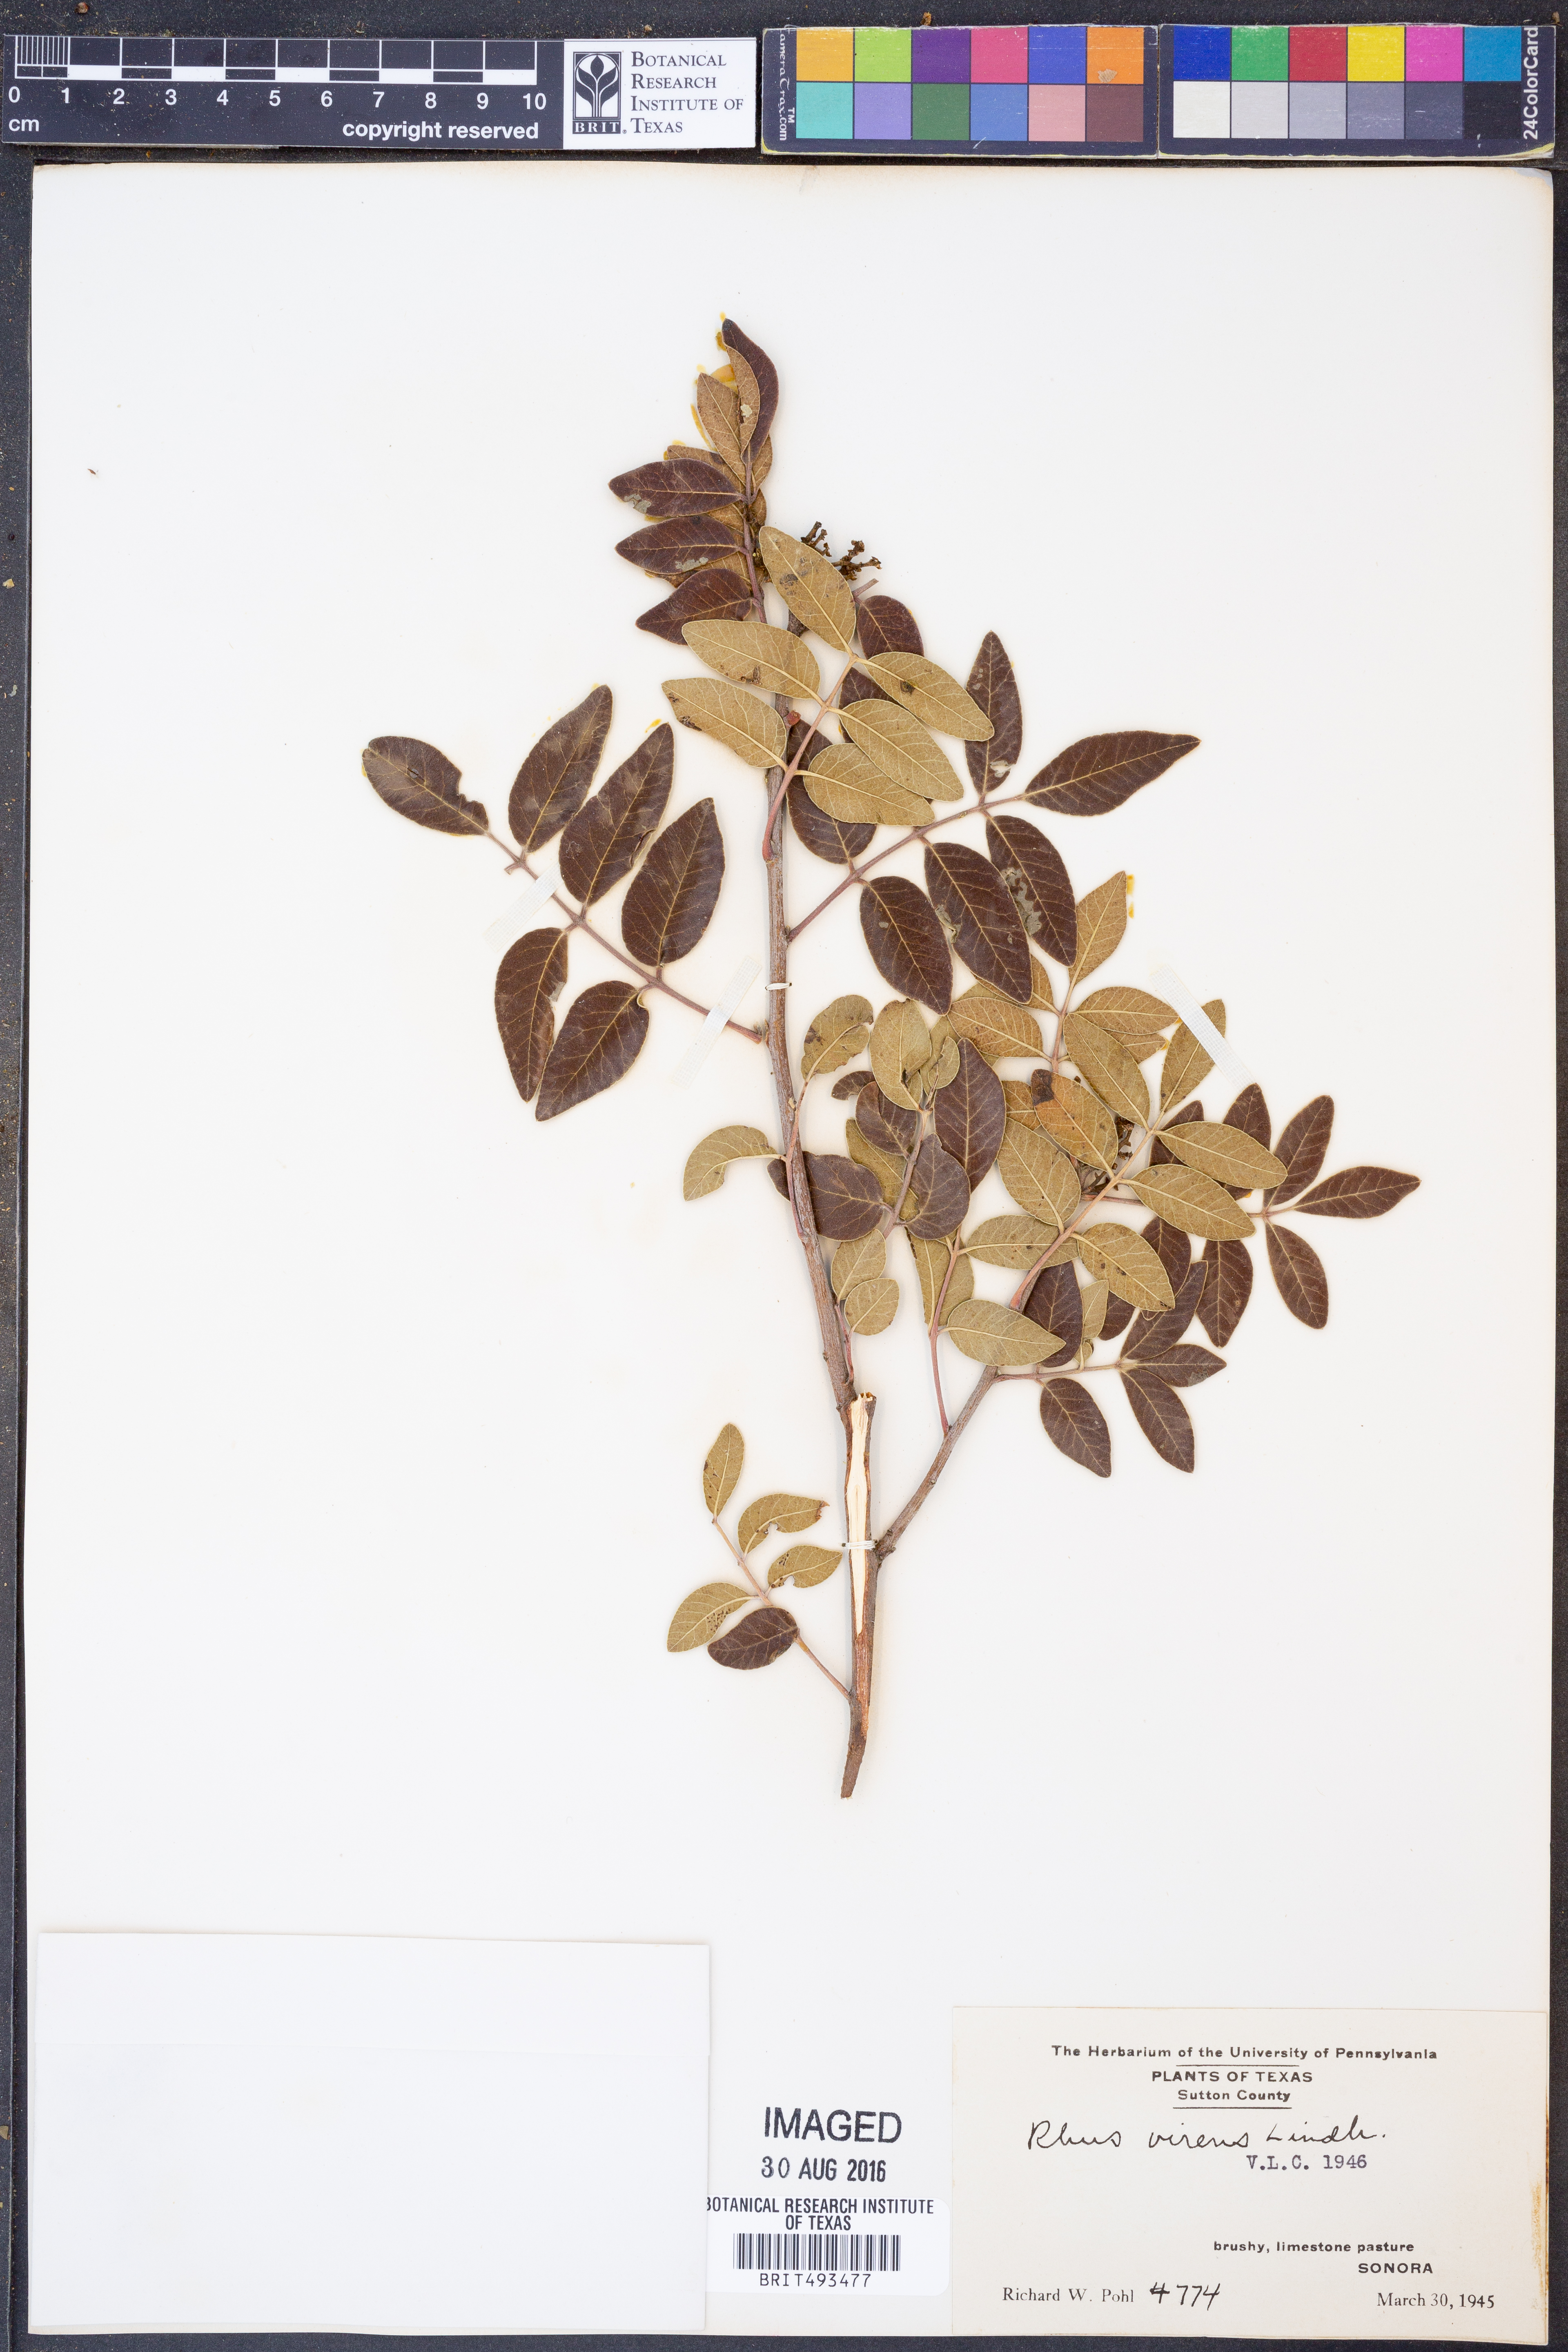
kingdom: Plantae
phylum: Tracheophyta
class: Magnoliopsida
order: Sapindales
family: Anacardiaceae
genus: Rhus
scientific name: Rhus virens
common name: Evergreen sumac
